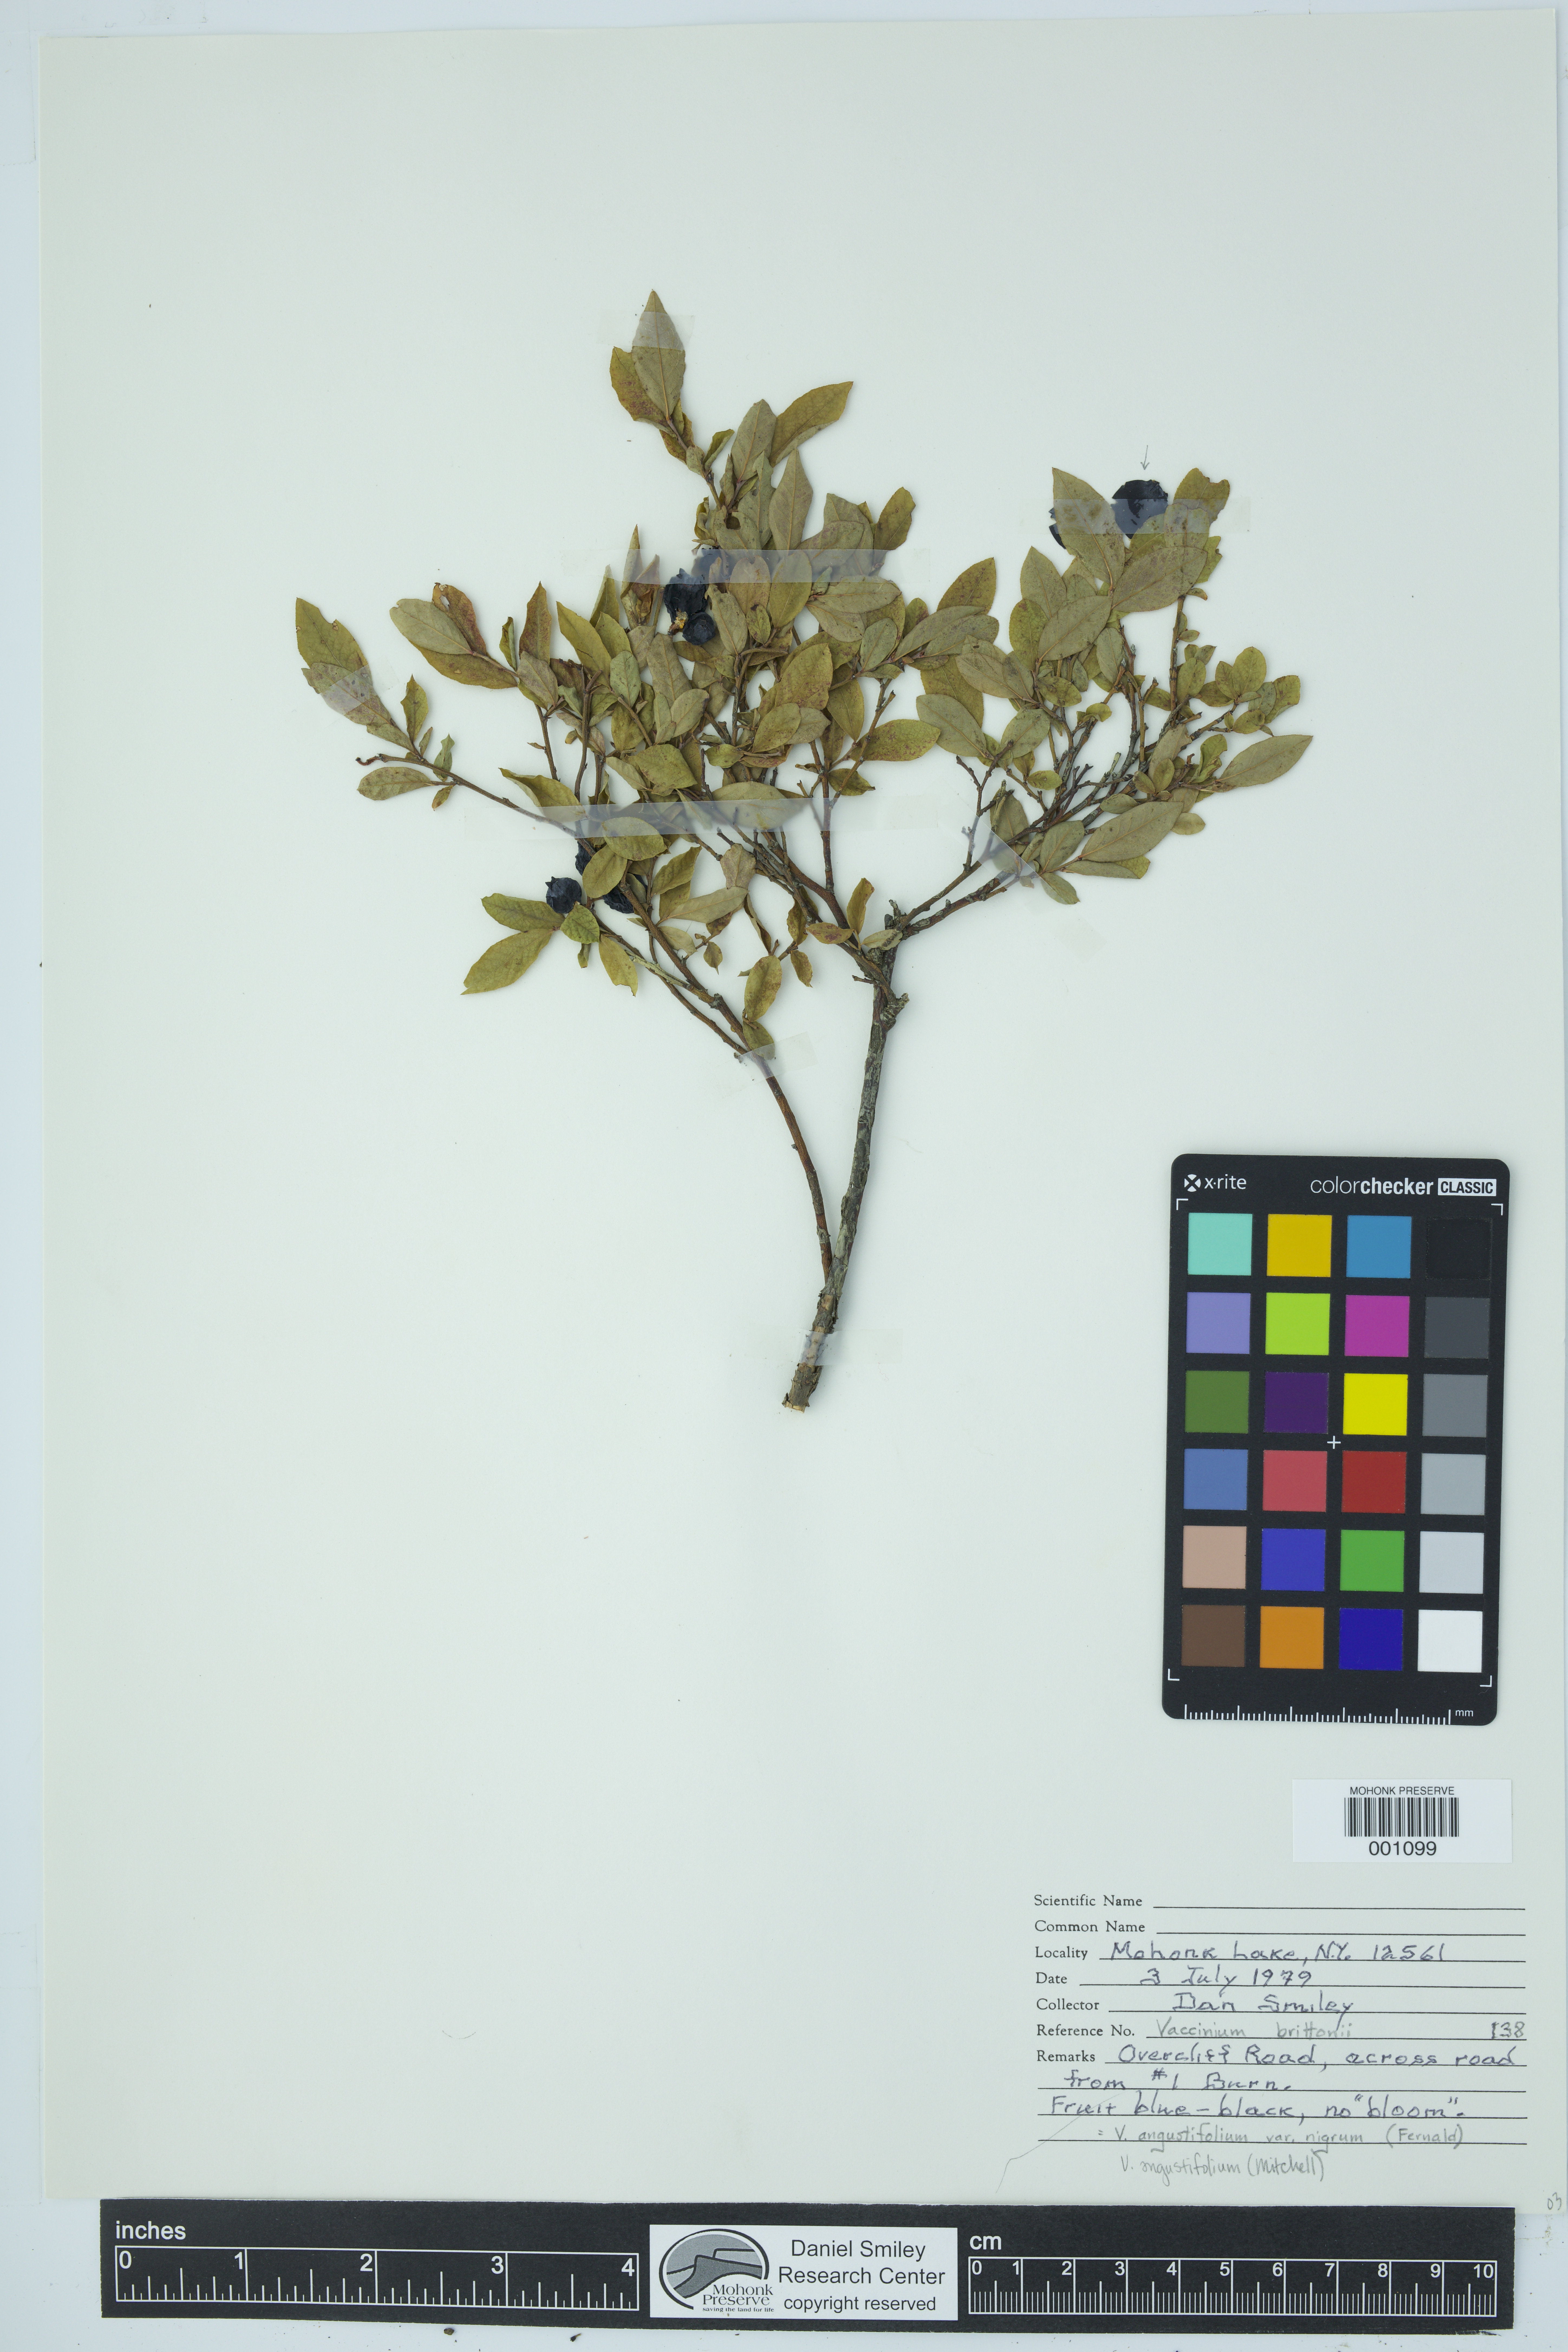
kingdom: Plantae
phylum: Tracheophyta
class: Magnoliopsida
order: Ericales
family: Ericaceae
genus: Vaccinium
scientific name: Vaccinium angustifolium
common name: Early lowbush blueberry
